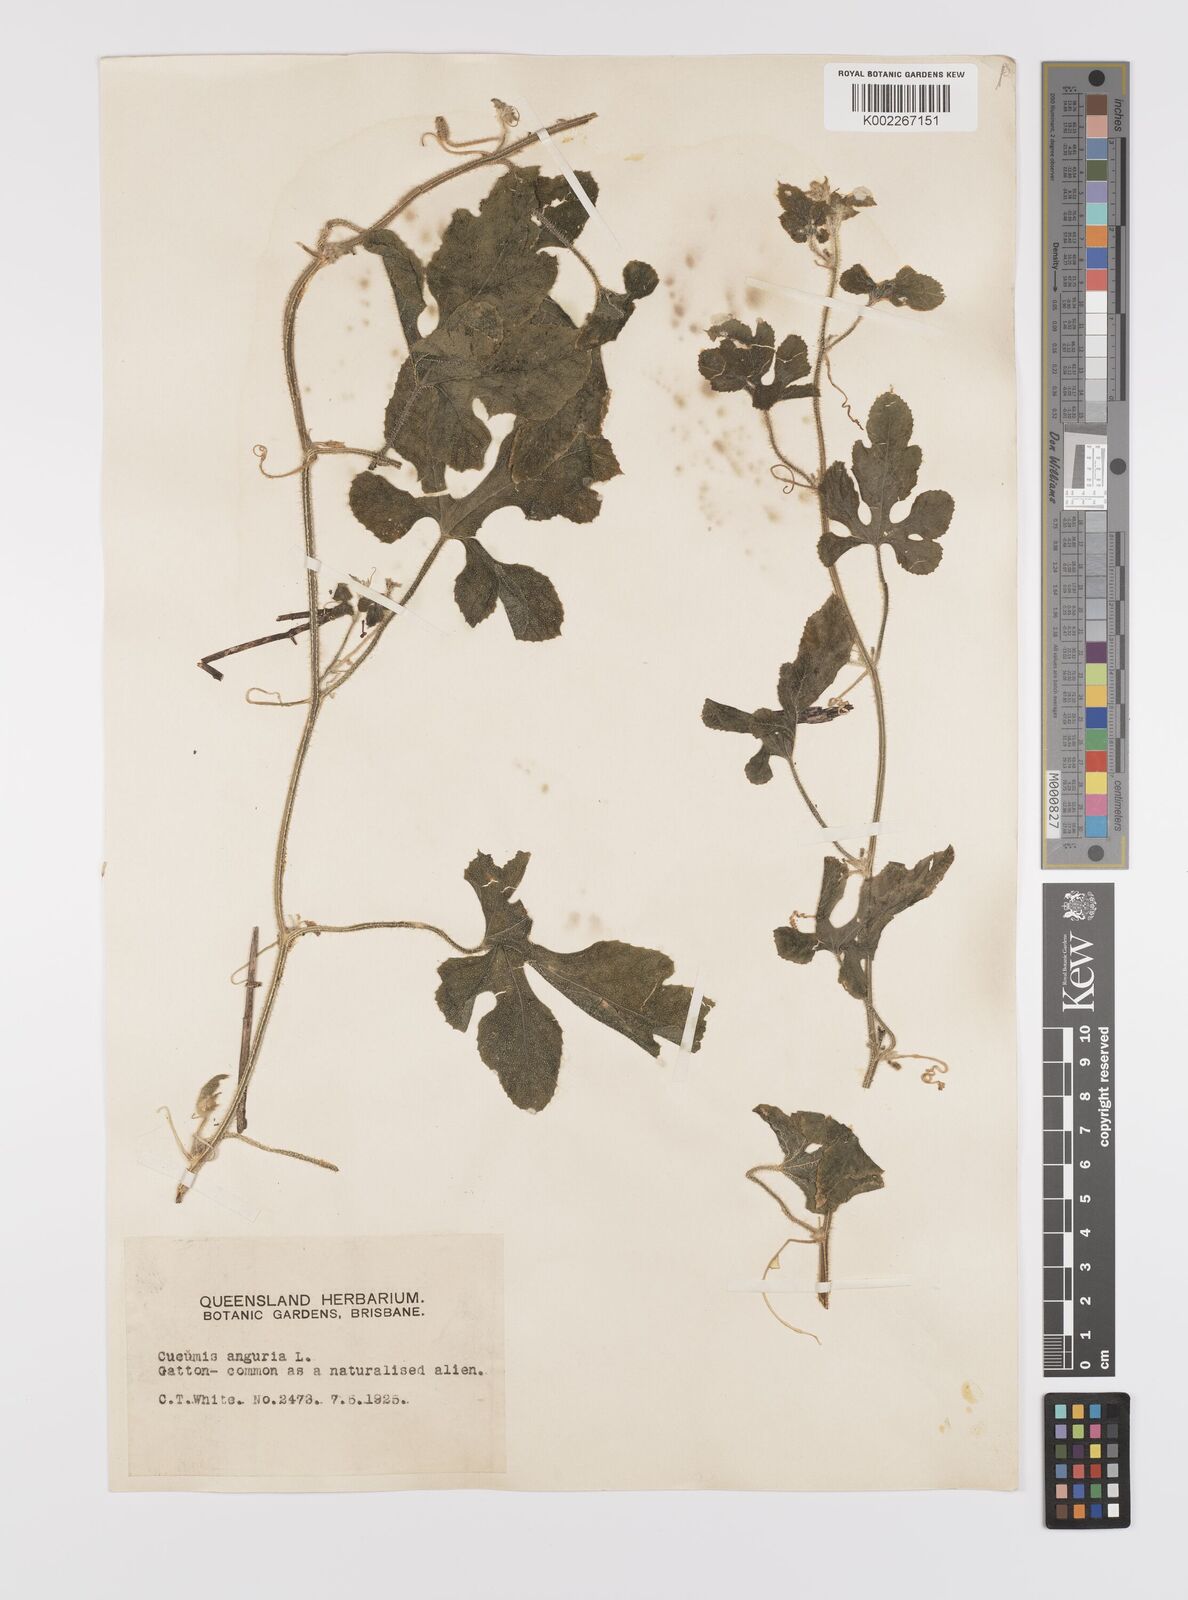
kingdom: Plantae
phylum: Tracheophyta
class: Magnoliopsida
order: Cucurbitales
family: Cucurbitaceae
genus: Cucumis
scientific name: Cucumis anguria
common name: West indian gherkin
